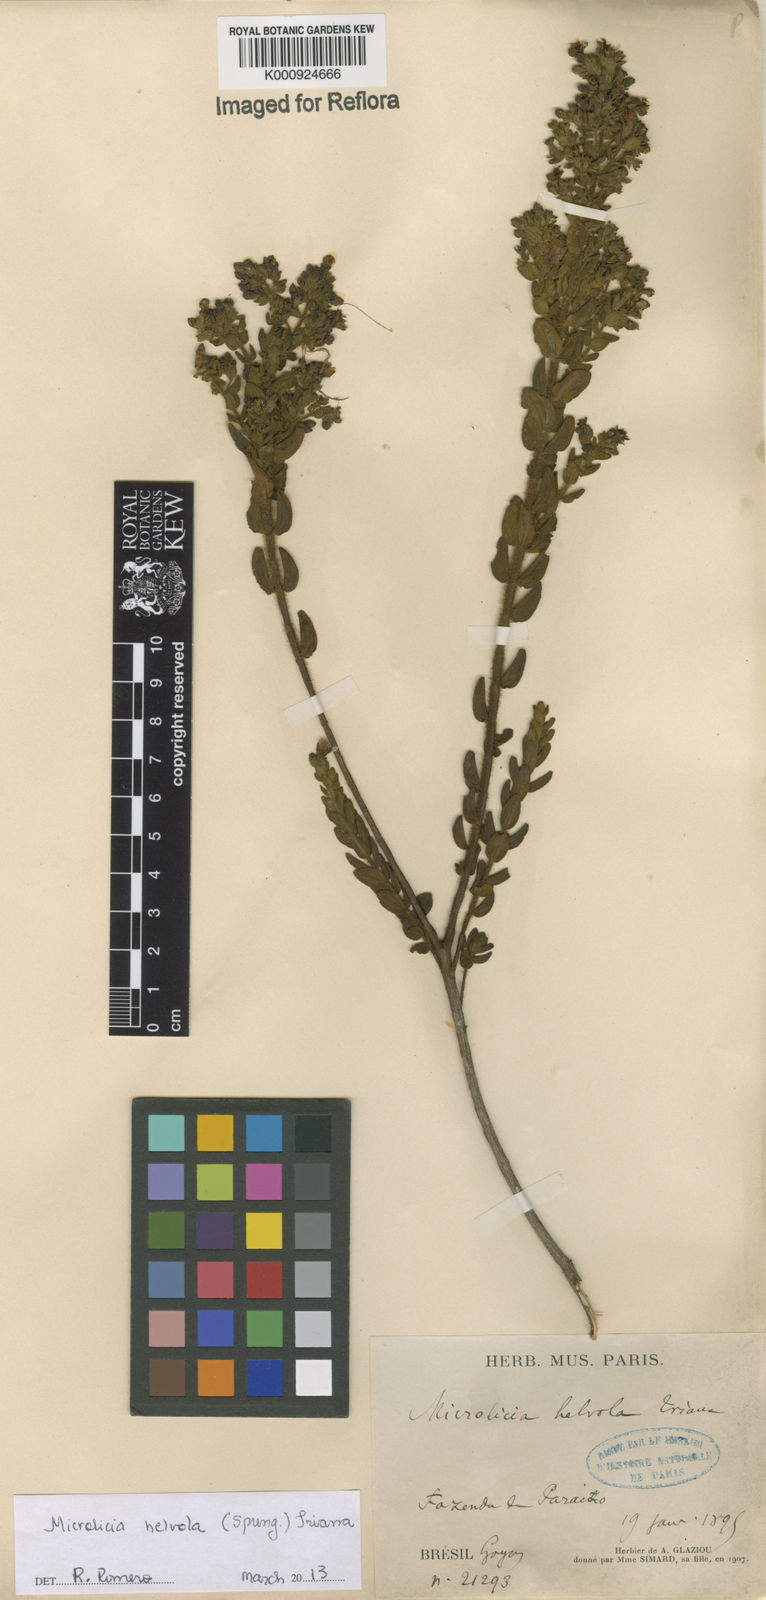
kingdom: Plantae
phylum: Tracheophyta
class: Magnoliopsida
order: Myrtales
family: Melastomataceae
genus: Microlicia
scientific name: Microlicia helvola
